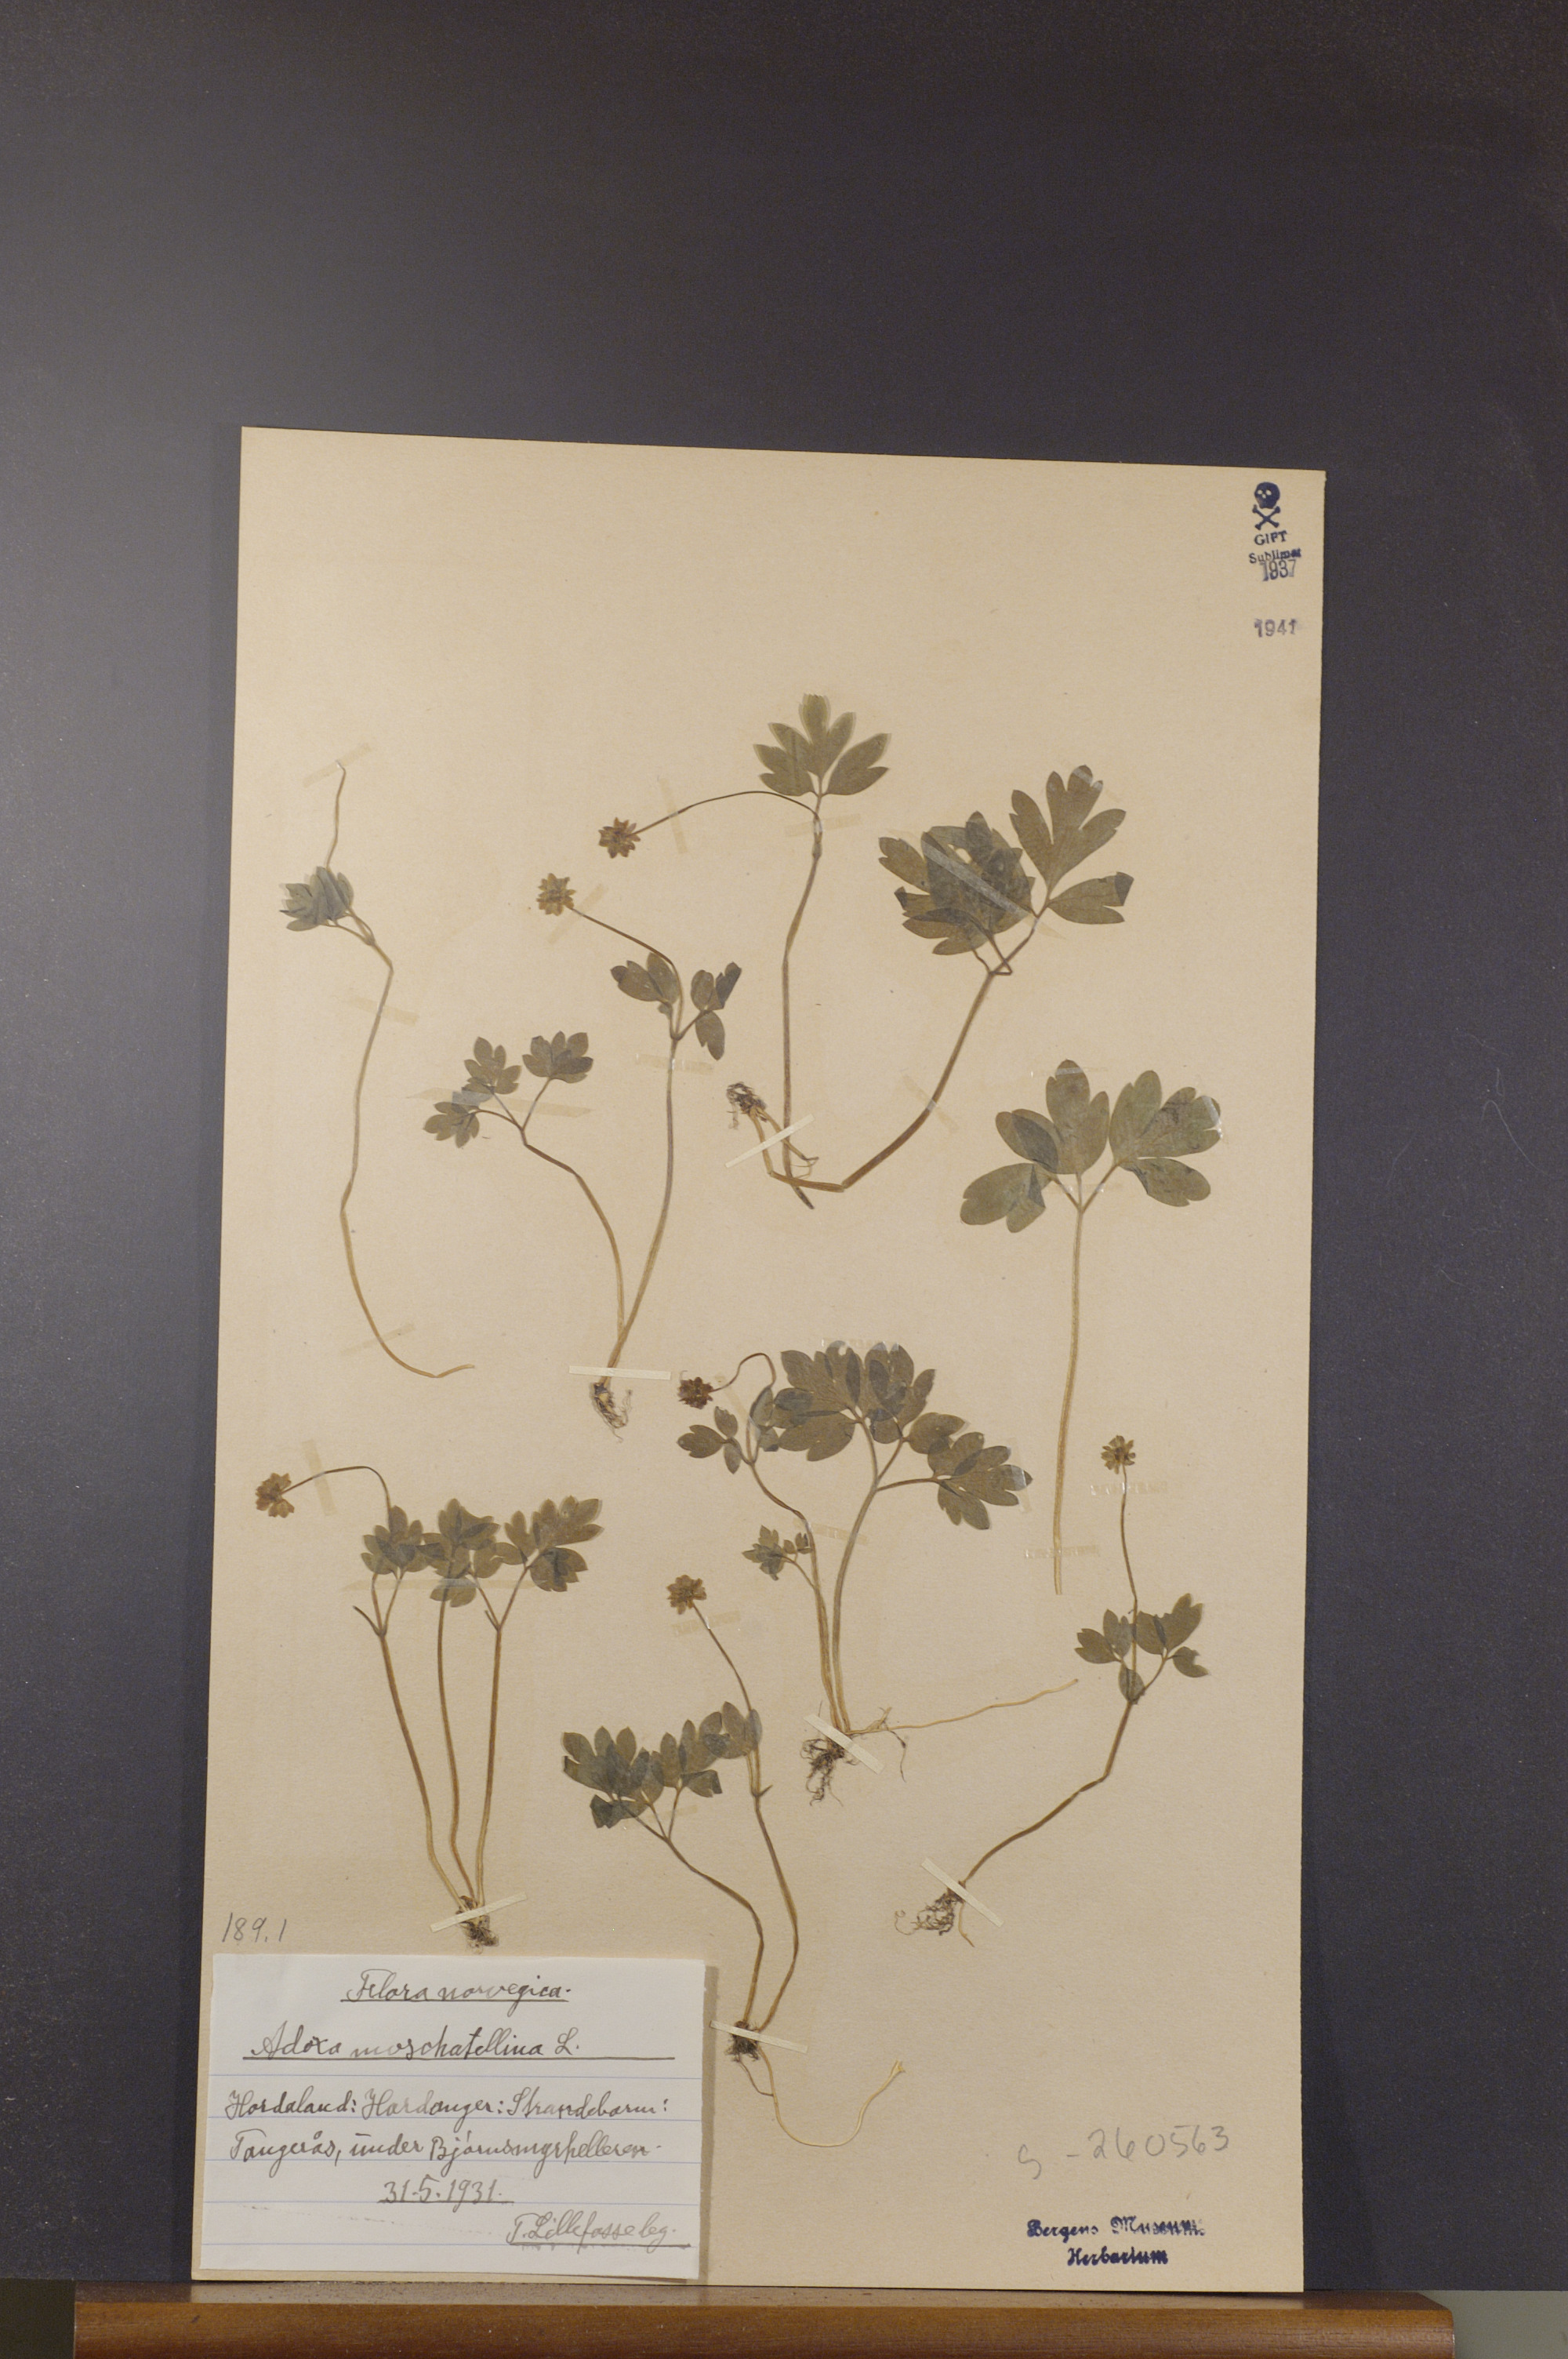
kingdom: Plantae
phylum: Tracheophyta
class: Magnoliopsida
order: Dipsacales
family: Viburnaceae
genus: Adoxa
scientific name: Adoxa moschatellina
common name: Moschatel
